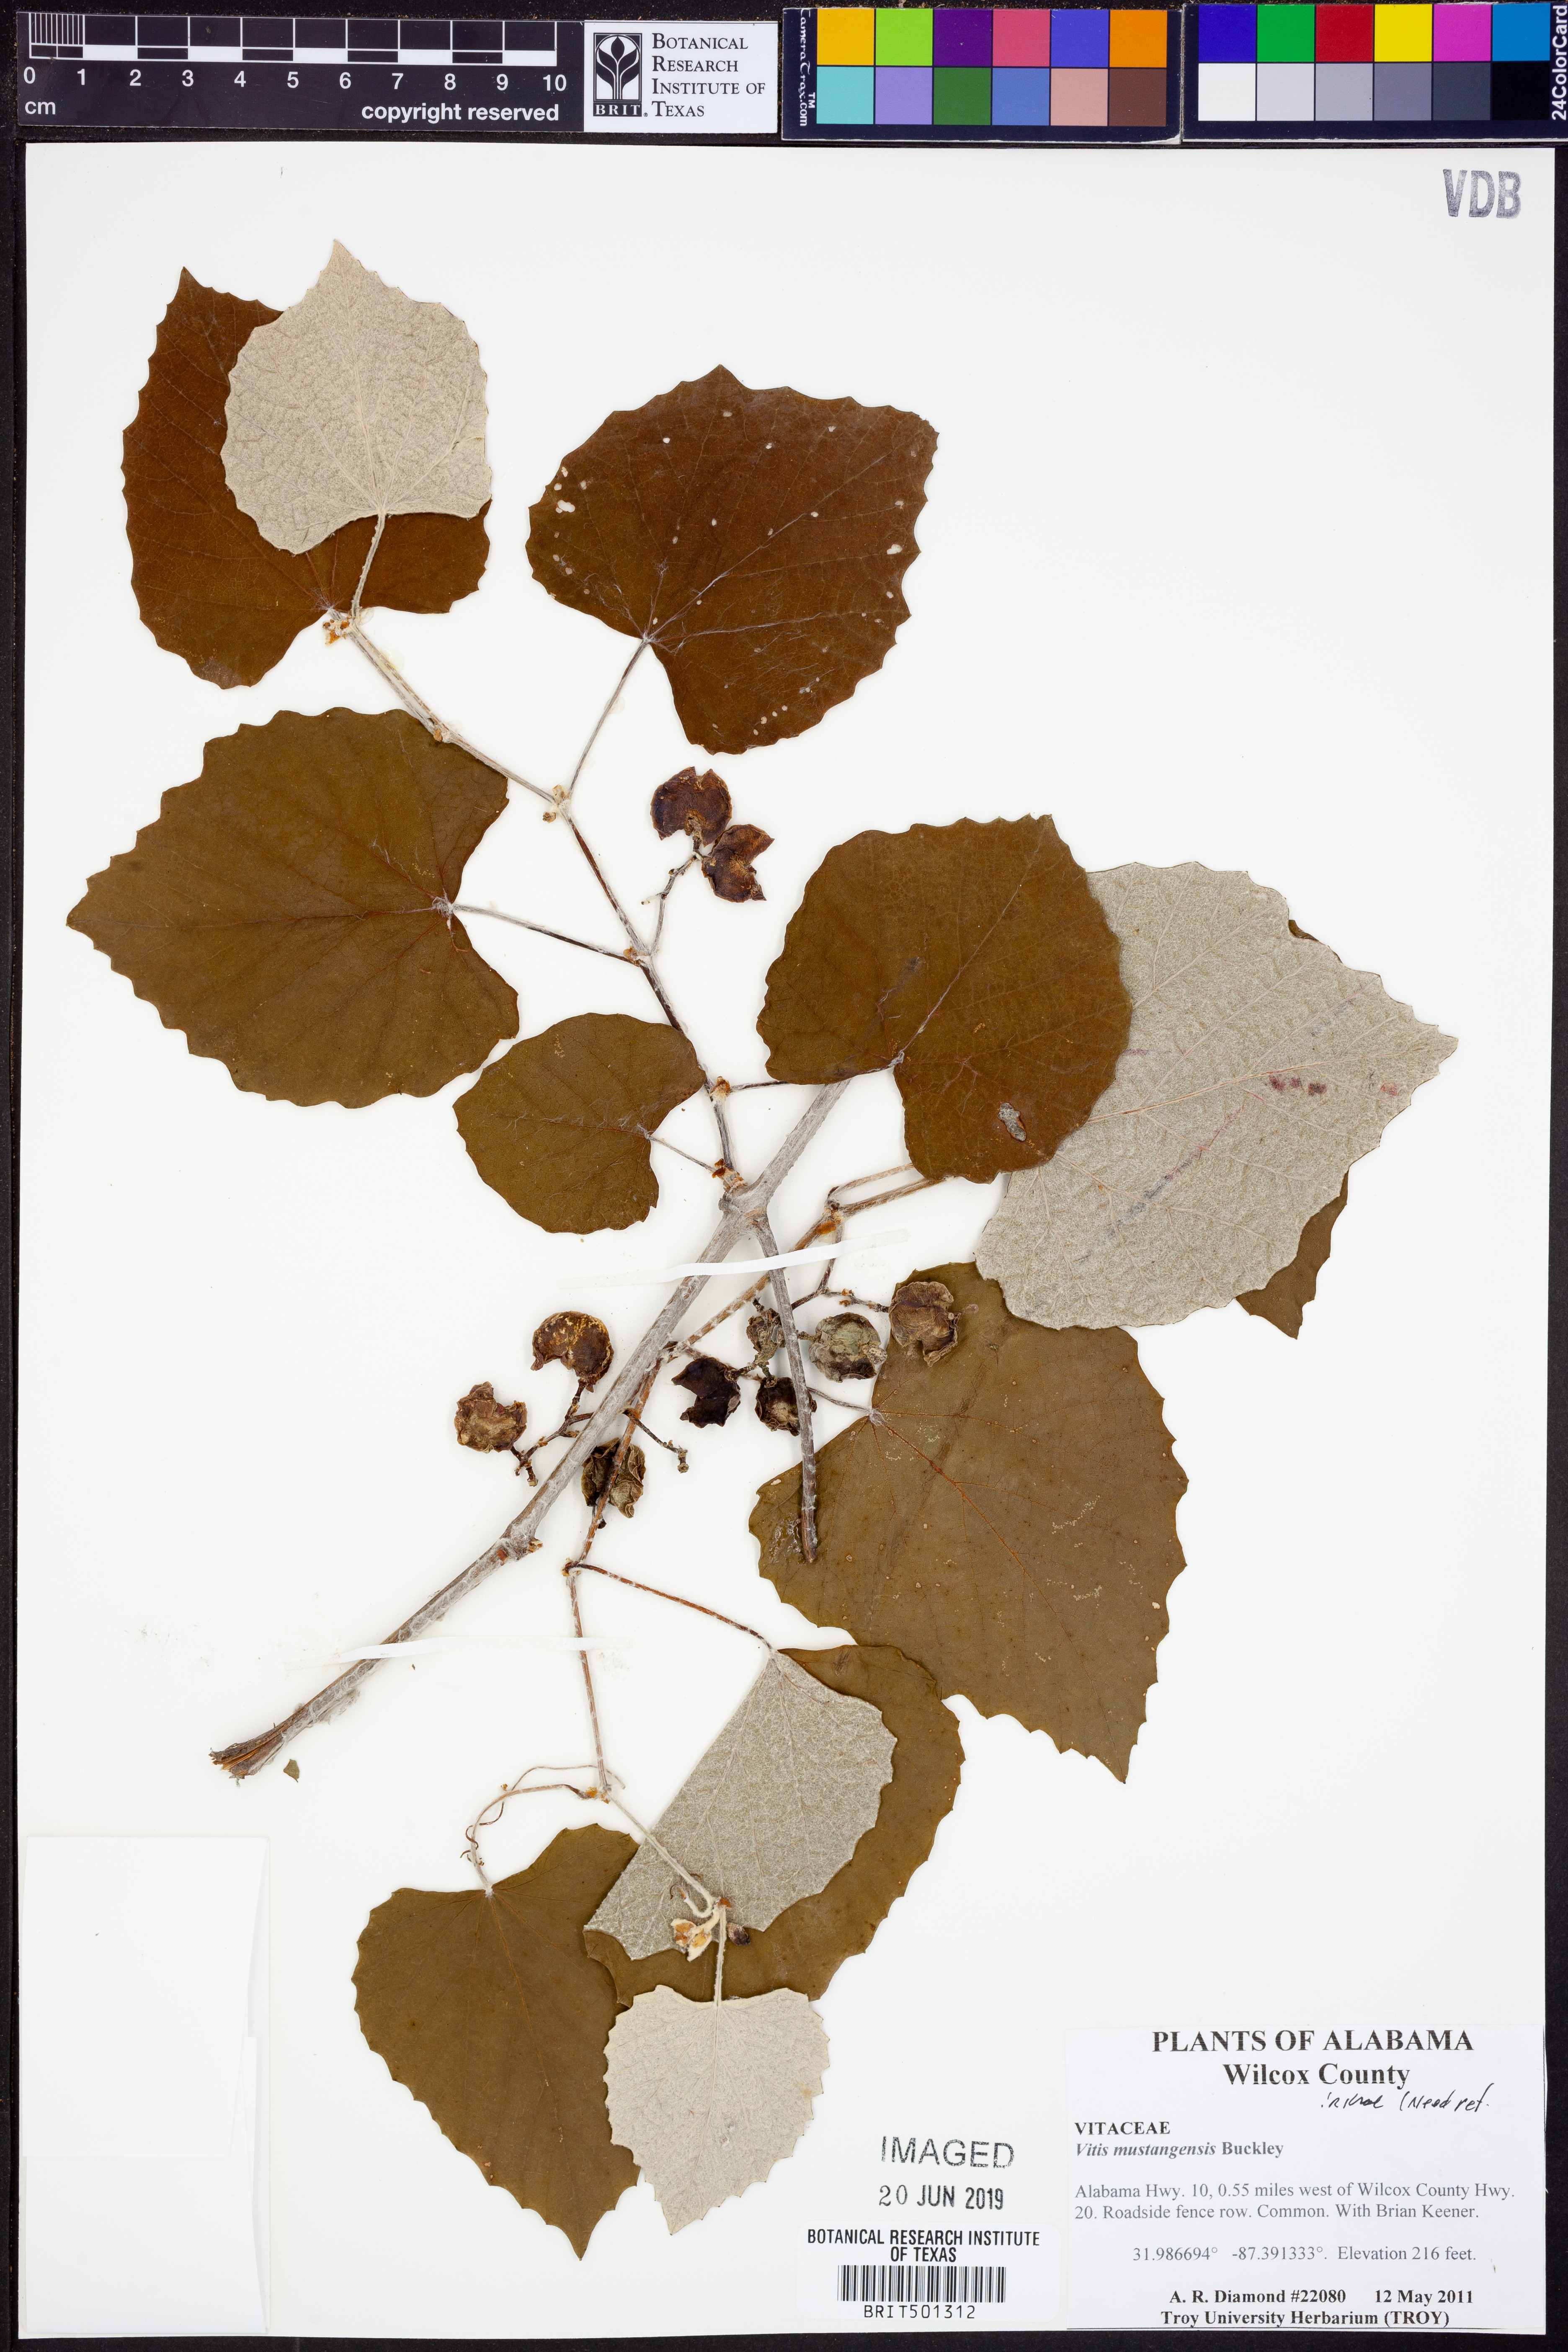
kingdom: Plantae
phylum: Tracheophyta
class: Magnoliopsida
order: Vitales
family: Vitaceae
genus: Vitis
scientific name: Vitis mustangensis
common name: Mustang grape
